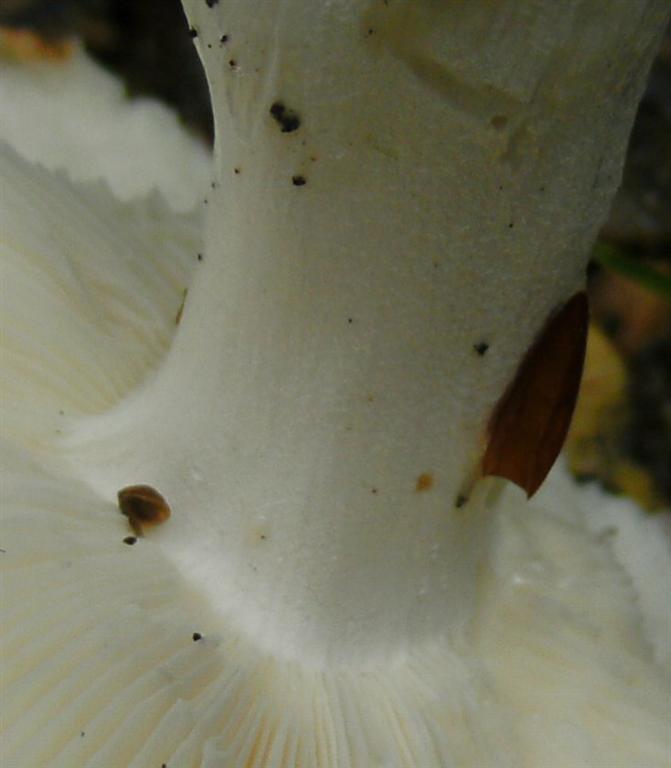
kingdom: Fungi
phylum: Basidiomycota
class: Agaricomycetes
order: Russulales
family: Russulaceae
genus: Russula
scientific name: Russula aurora
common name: rosa skørhat
